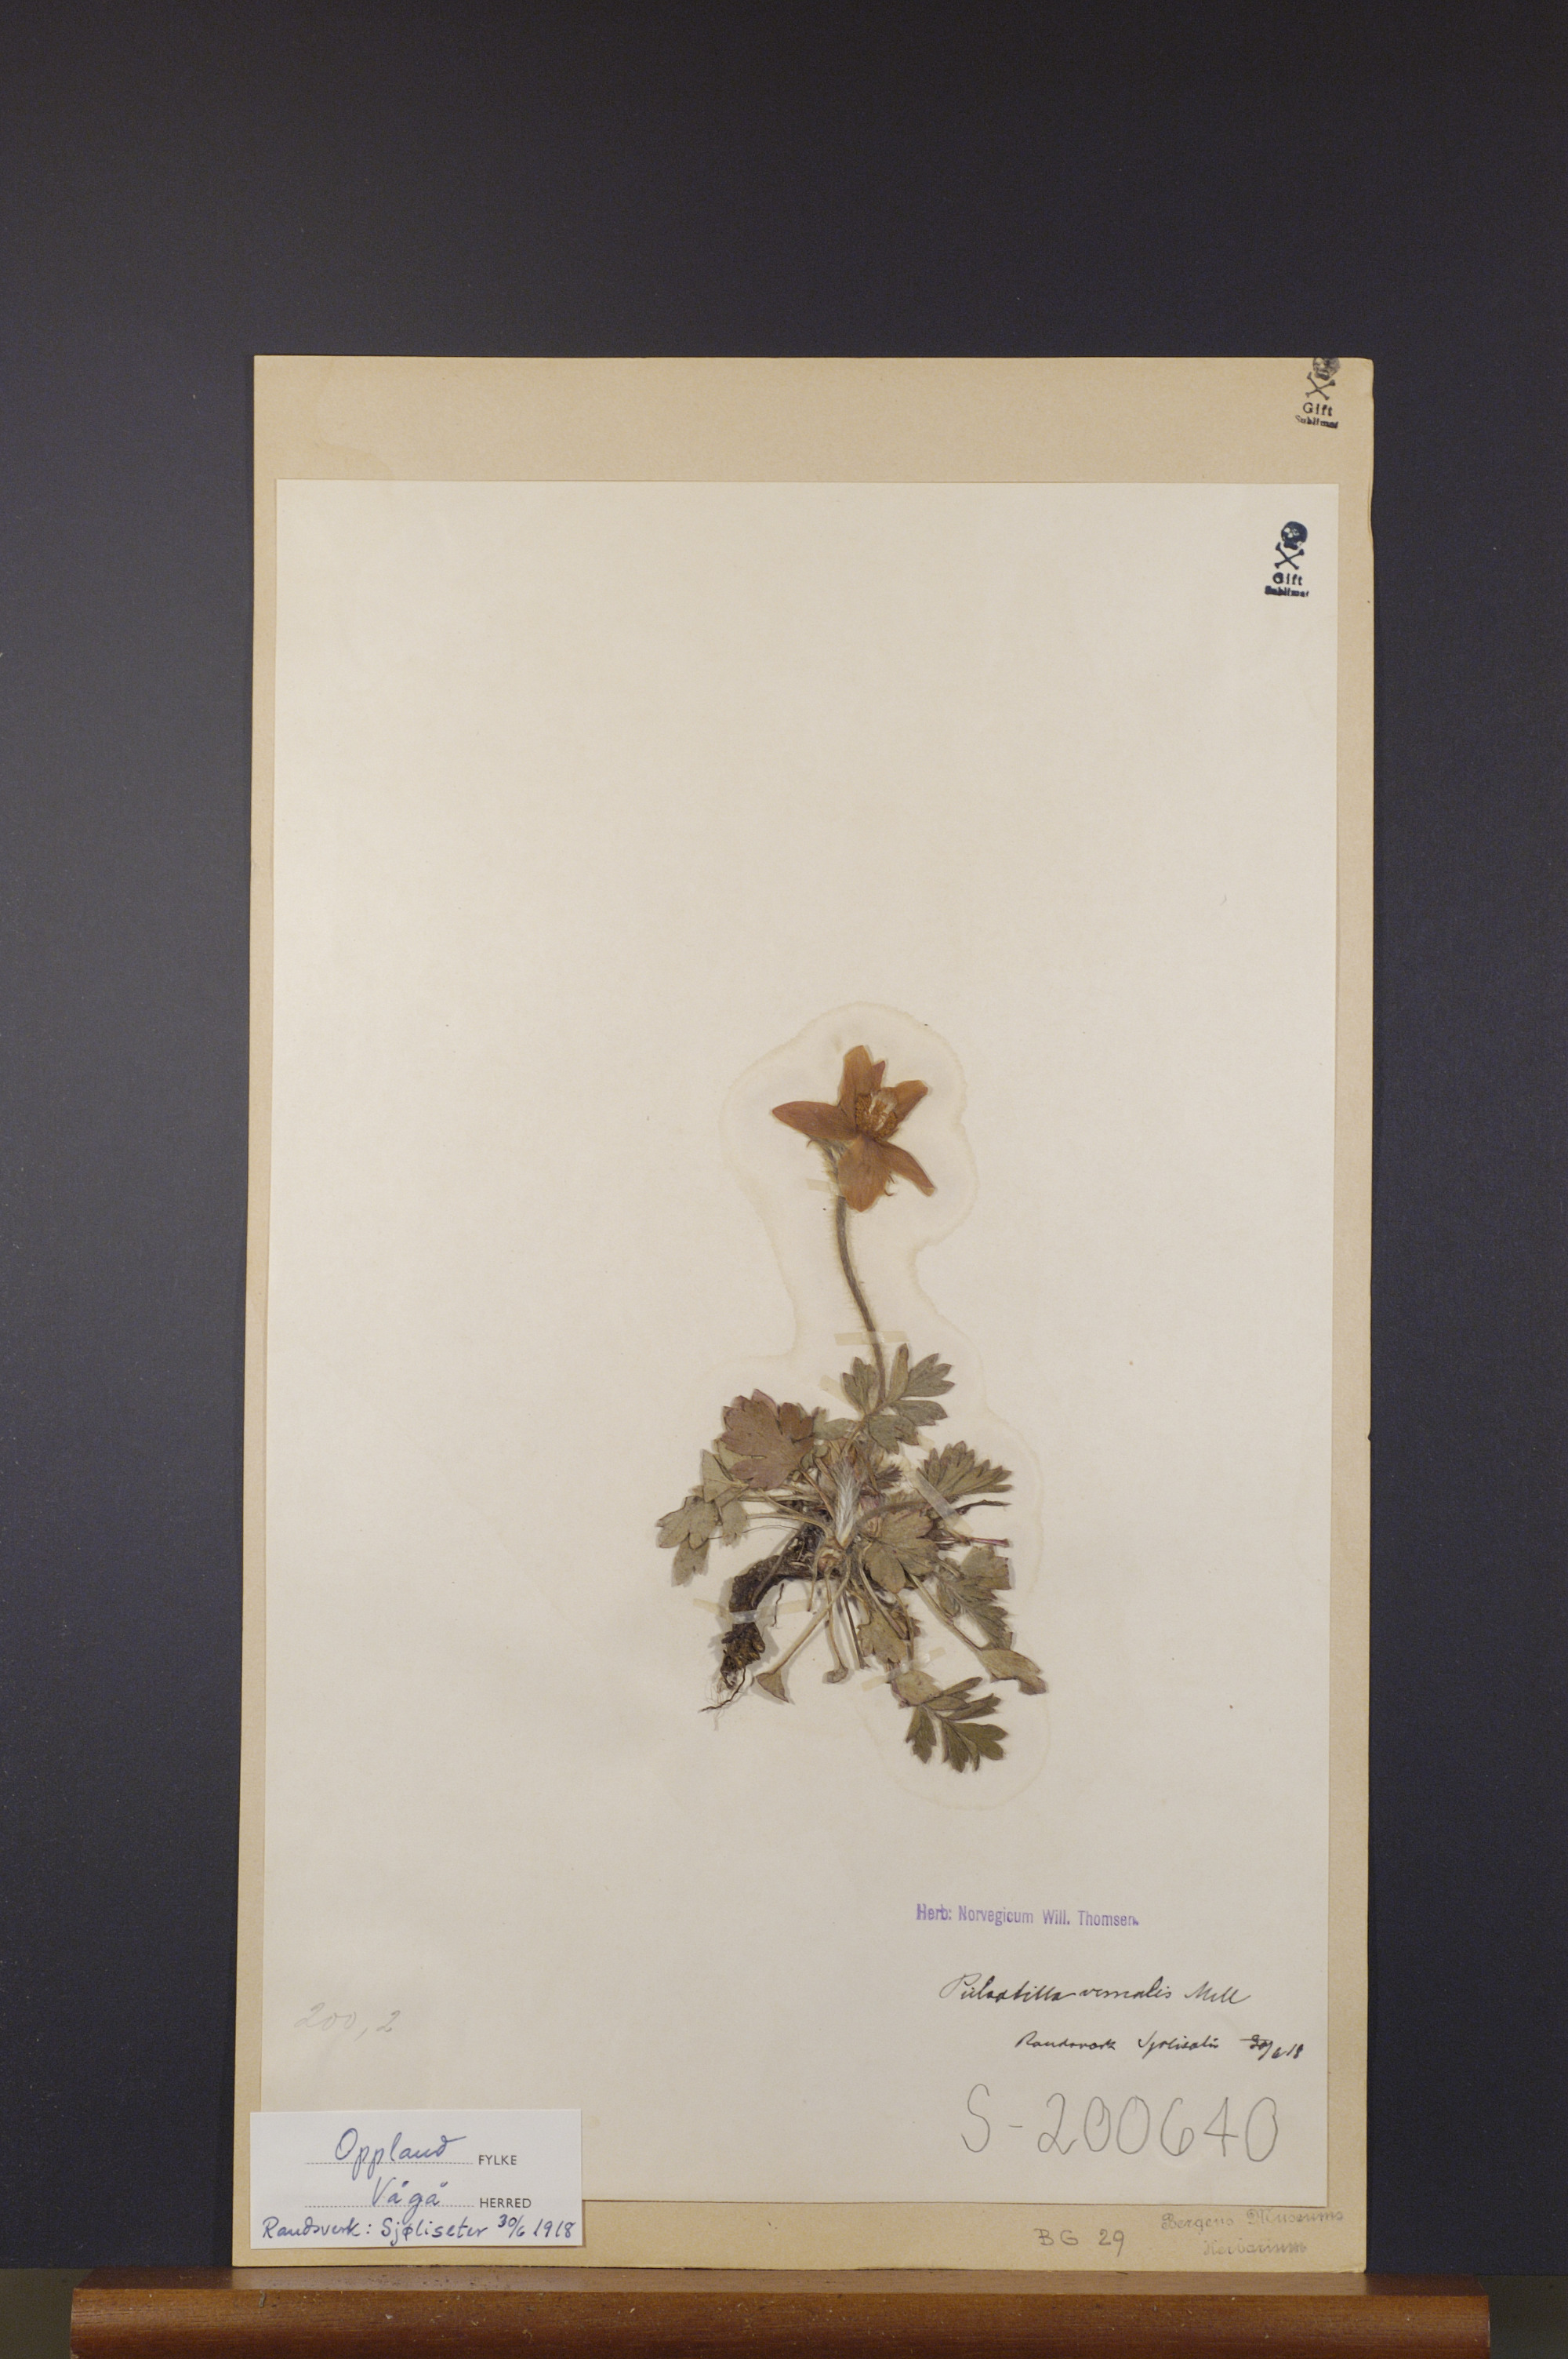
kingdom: Plantae
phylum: Tracheophyta
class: Magnoliopsida
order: Ranunculales
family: Ranunculaceae
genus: Pulsatilla
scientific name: Pulsatilla vernalis
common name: Spring pasque flower
